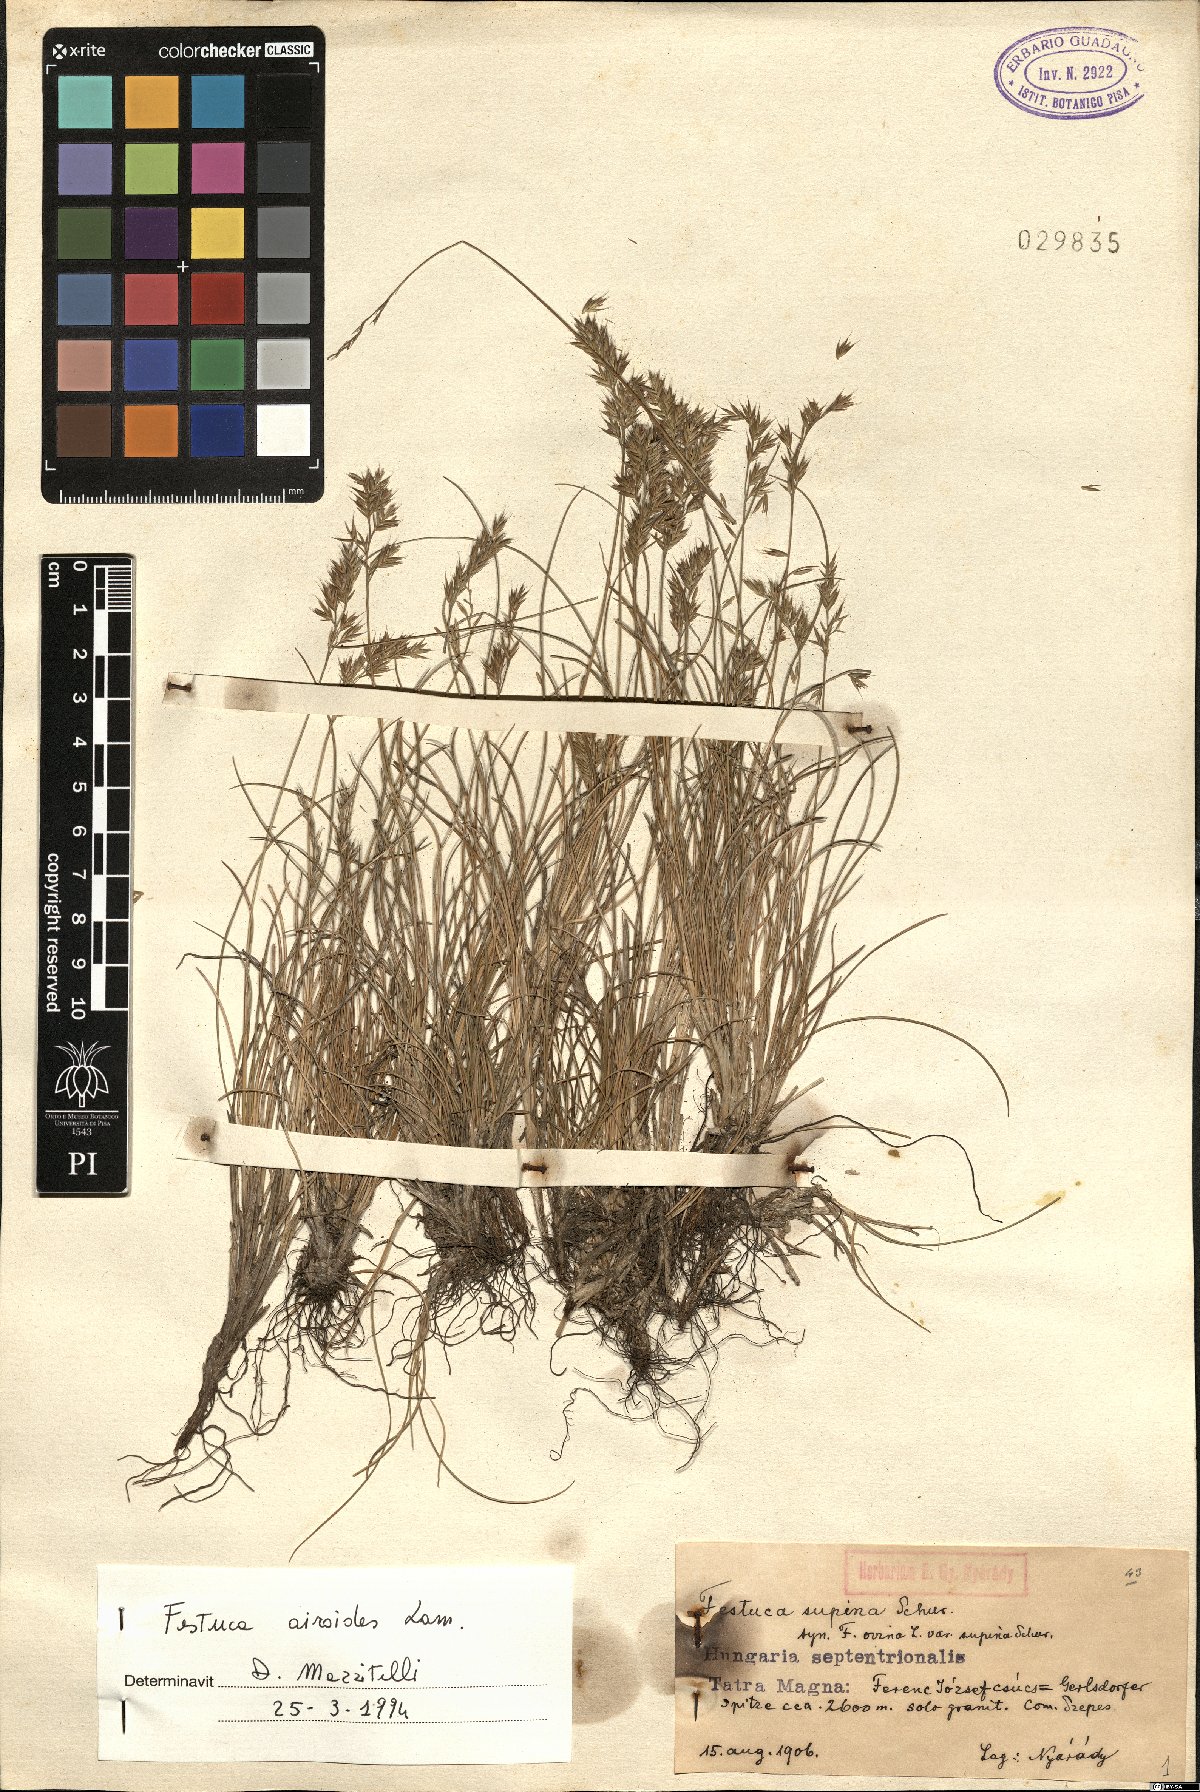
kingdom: Plantae
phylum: Tracheophyta
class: Liliopsida
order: Poales
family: Poaceae
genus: Festuca
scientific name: Festuca airoides
